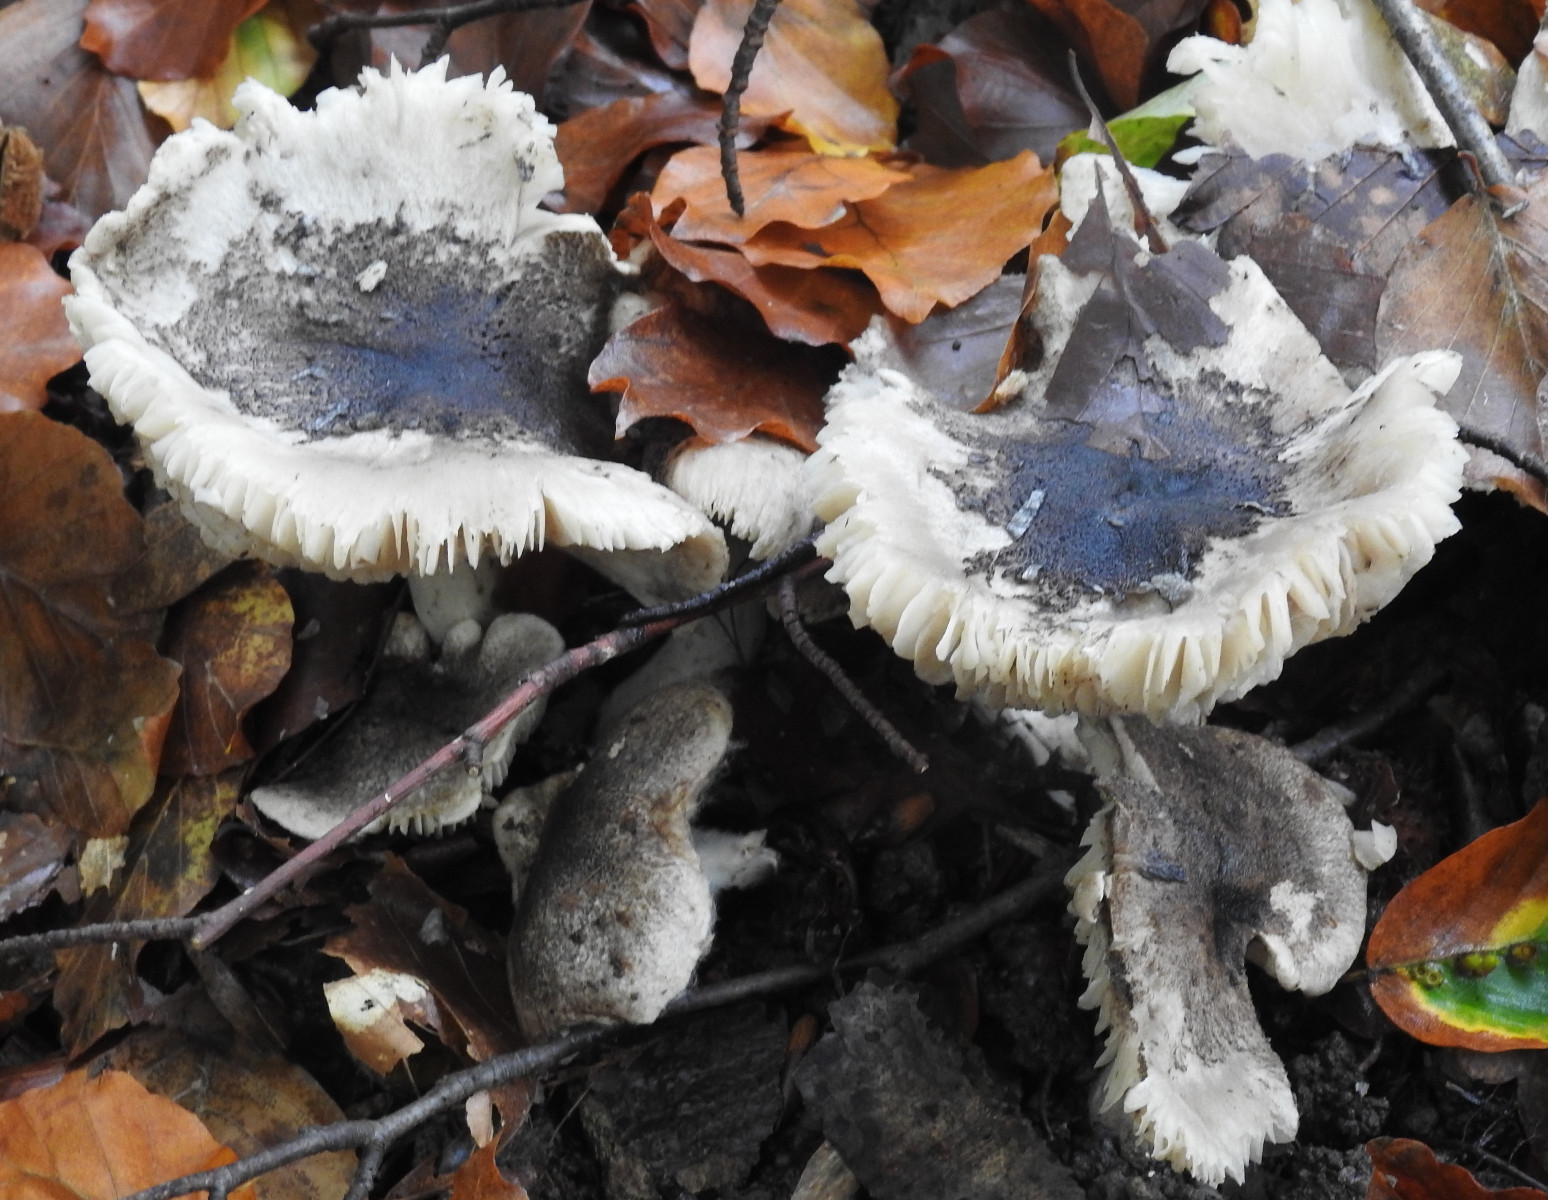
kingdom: Fungi
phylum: Basidiomycota
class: Agaricomycetes
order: Agaricales
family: Tricholomataceae
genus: Tricholoma
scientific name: Tricholoma sciodes
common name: stribet ridderhat
